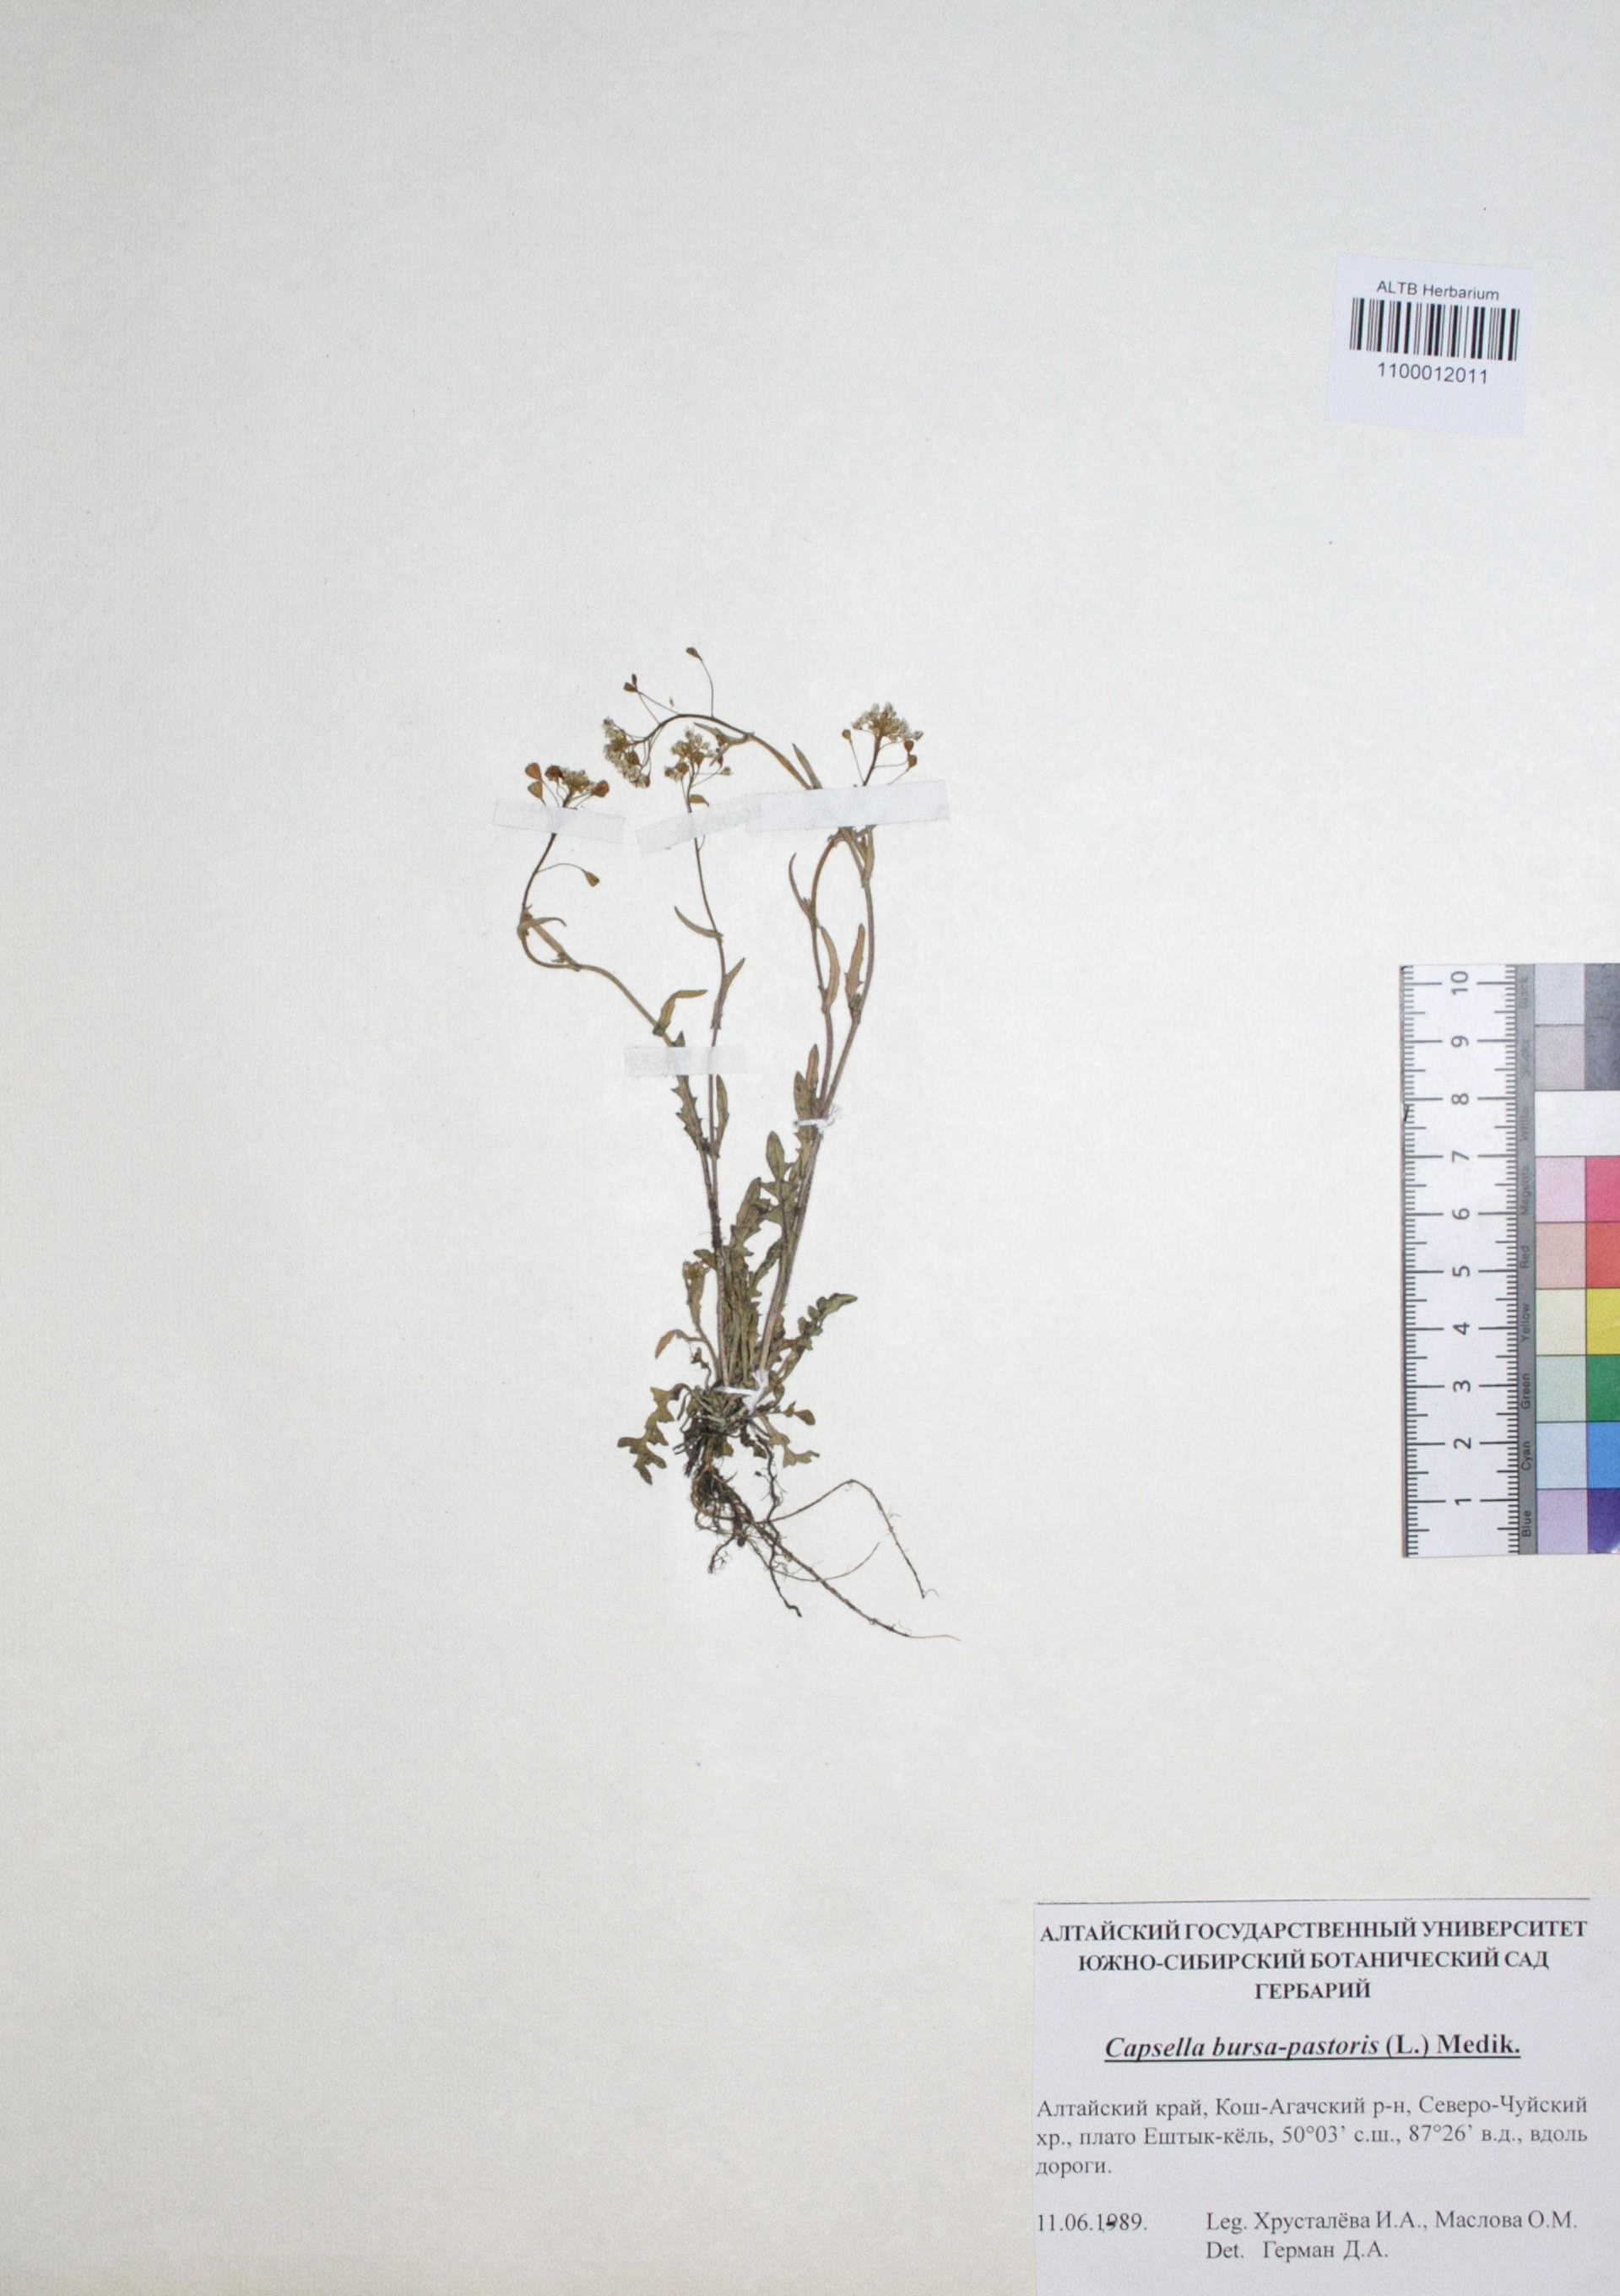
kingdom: Plantae
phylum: Tracheophyta
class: Magnoliopsida
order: Brassicales
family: Brassicaceae
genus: Capsella
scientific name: Capsella bursa-pastoris
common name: Shepherd's purse
